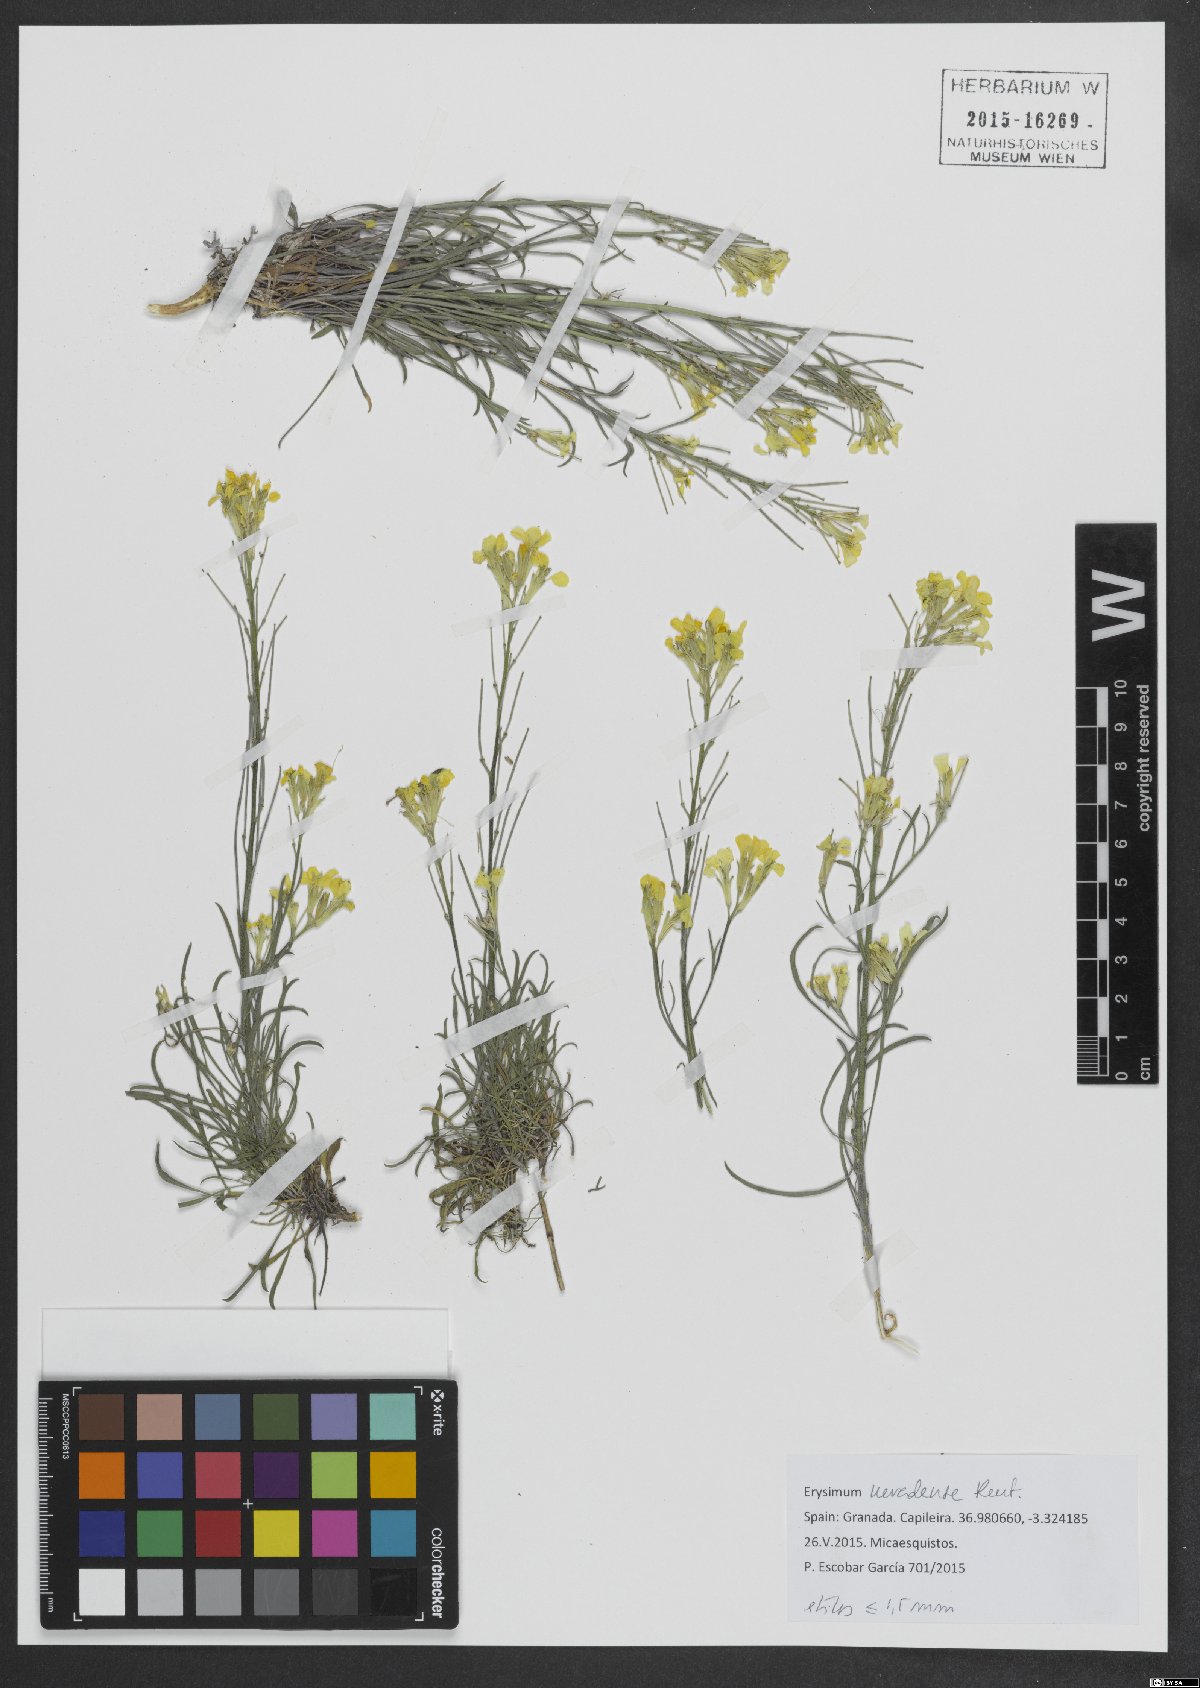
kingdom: Plantae
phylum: Tracheophyta
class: Magnoliopsida
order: Brassicales
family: Brassicaceae
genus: Erysimum
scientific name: Erysimum nevadense
